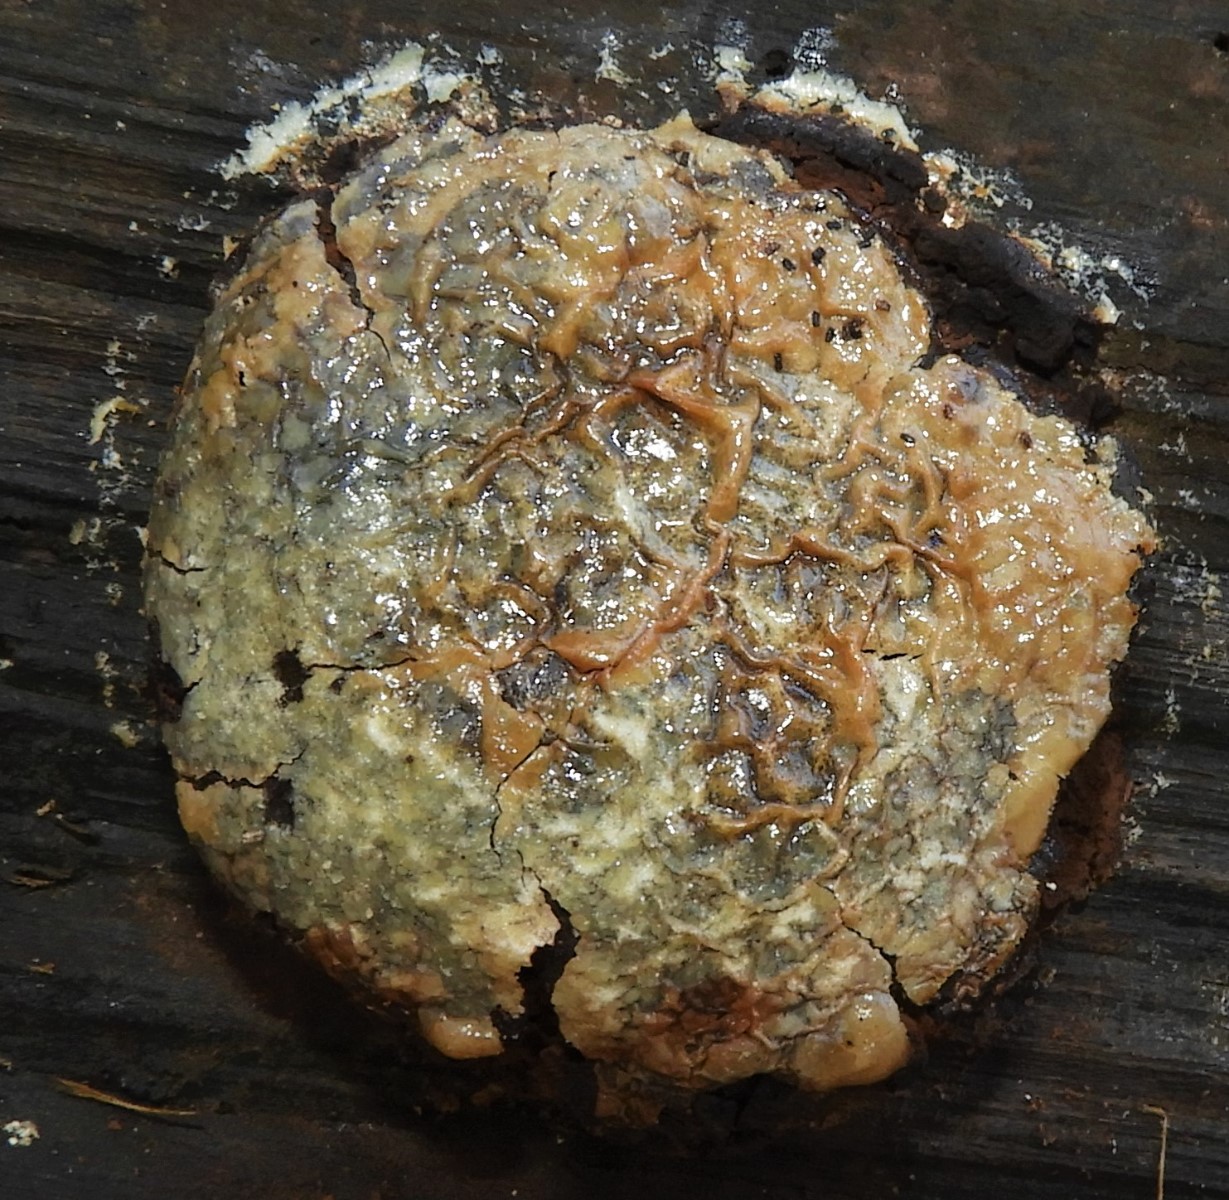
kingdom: Protozoa
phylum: Mycetozoa
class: Myxomycetes
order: Cribrariales
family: Tubiferaceae
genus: Reticularia
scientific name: Reticularia lycoperdon
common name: skinnende støvpude
